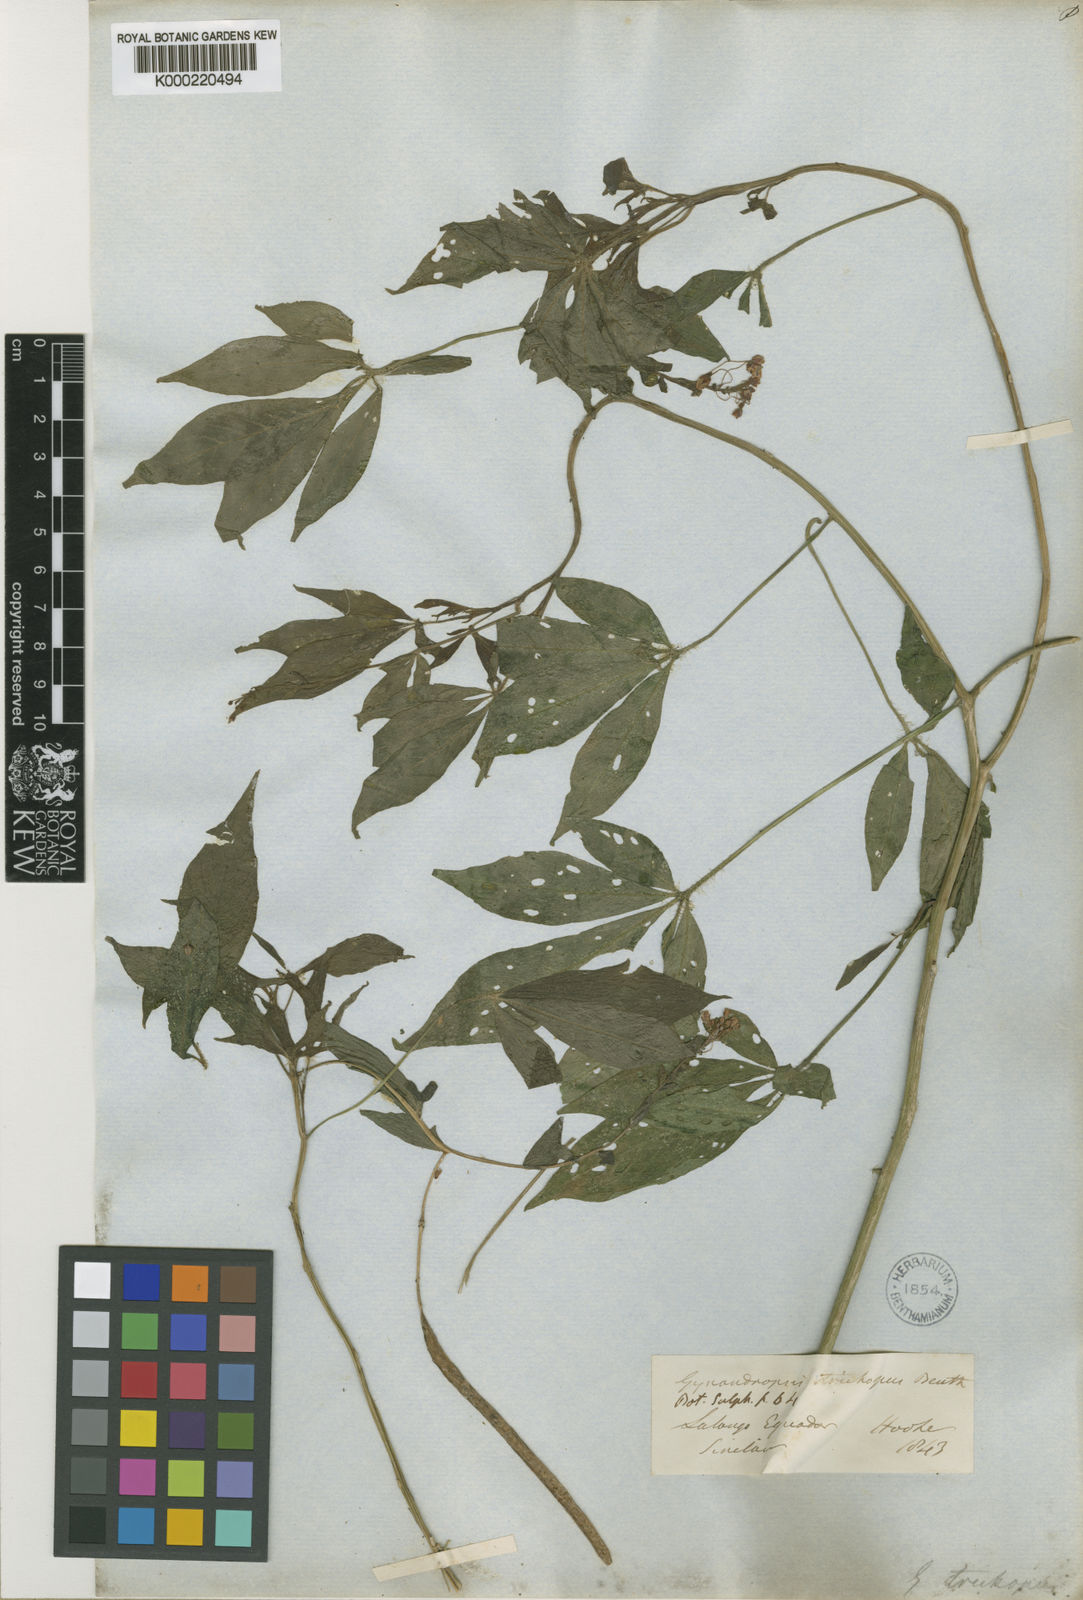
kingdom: Plantae
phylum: Tracheophyta
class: Magnoliopsida
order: Brassicales
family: Cleomaceae
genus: Podandrogyne
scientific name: Podandrogyne trichopus
